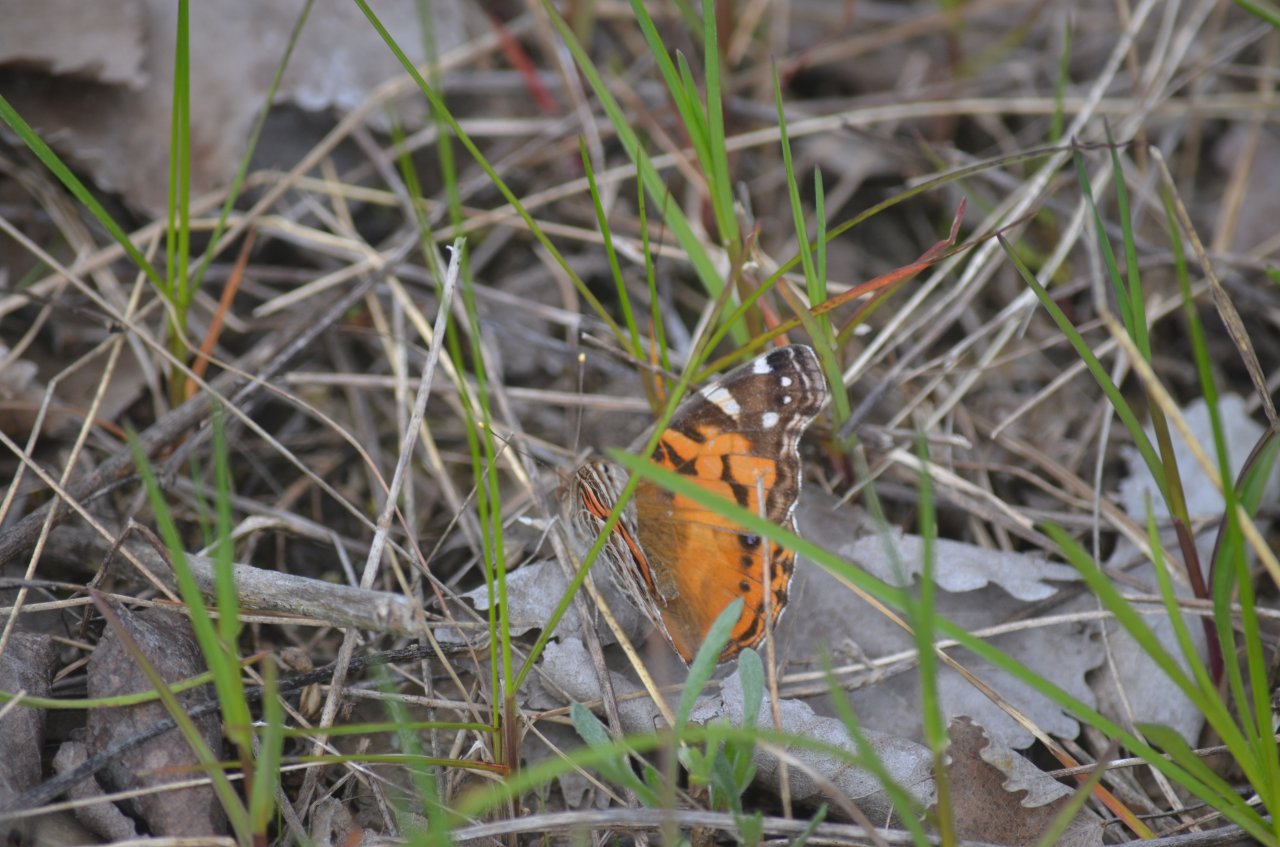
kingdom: Animalia
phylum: Arthropoda
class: Insecta
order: Lepidoptera
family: Nymphalidae
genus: Vanessa
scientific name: Vanessa virginiensis
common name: American Lady
